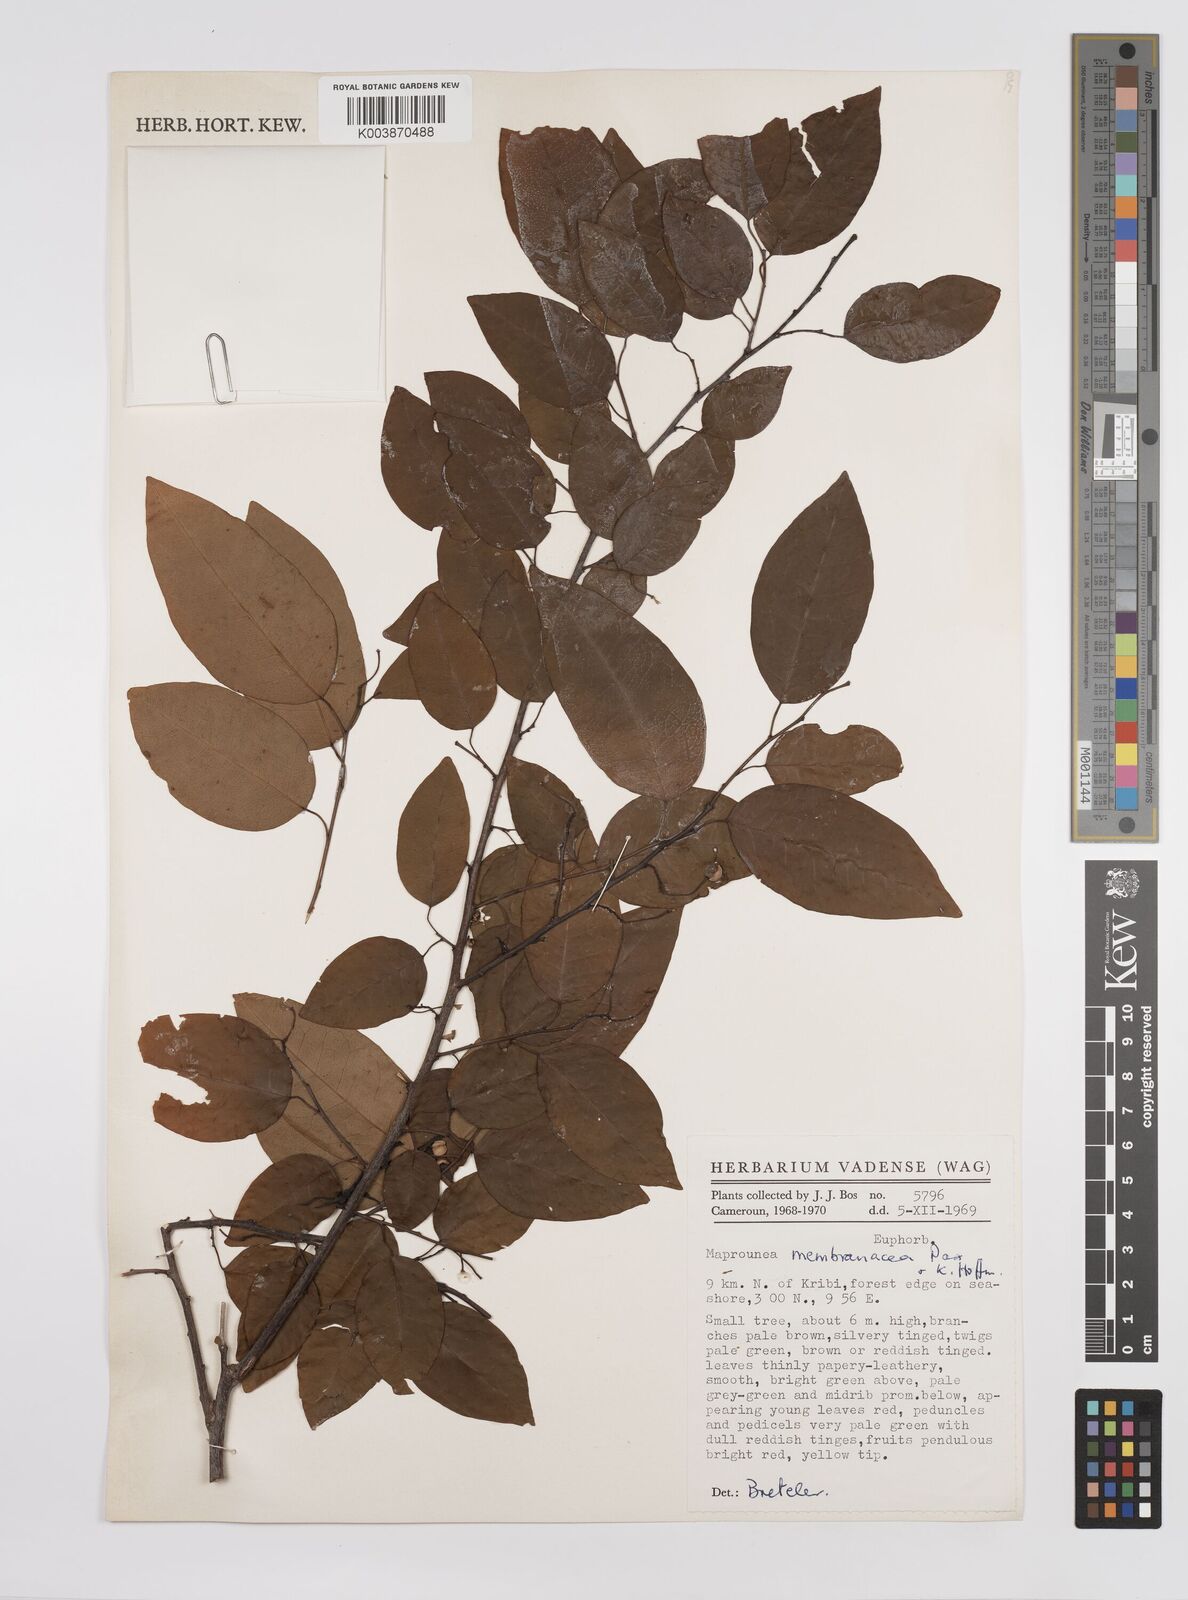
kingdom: Plantae
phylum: Tracheophyta
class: Magnoliopsida
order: Malpighiales
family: Euphorbiaceae
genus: Maprounea
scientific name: Maprounea membranacea
